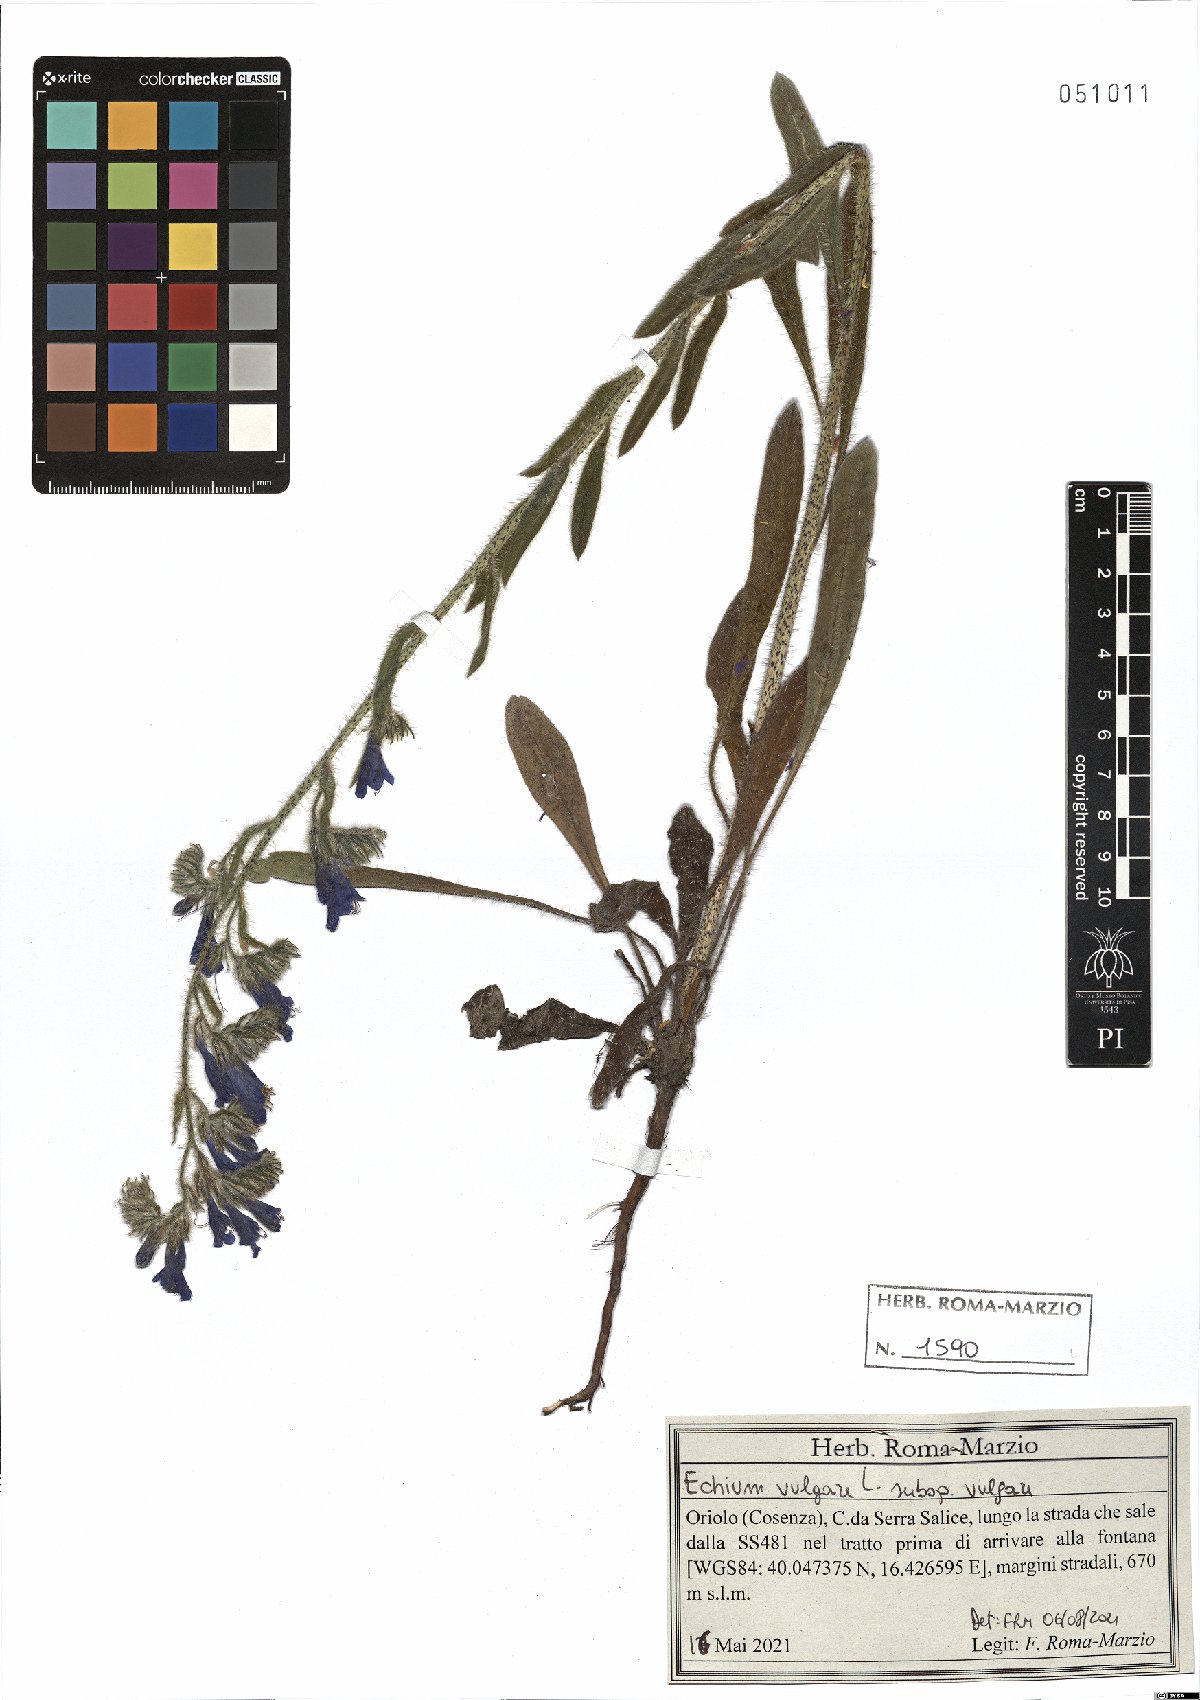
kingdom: Plantae
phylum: Tracheophyta
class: Magnoliopsida
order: Boraginales
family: Boraginaceae
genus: Echium
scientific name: Echium vulgare
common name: Common viper's bugloss
